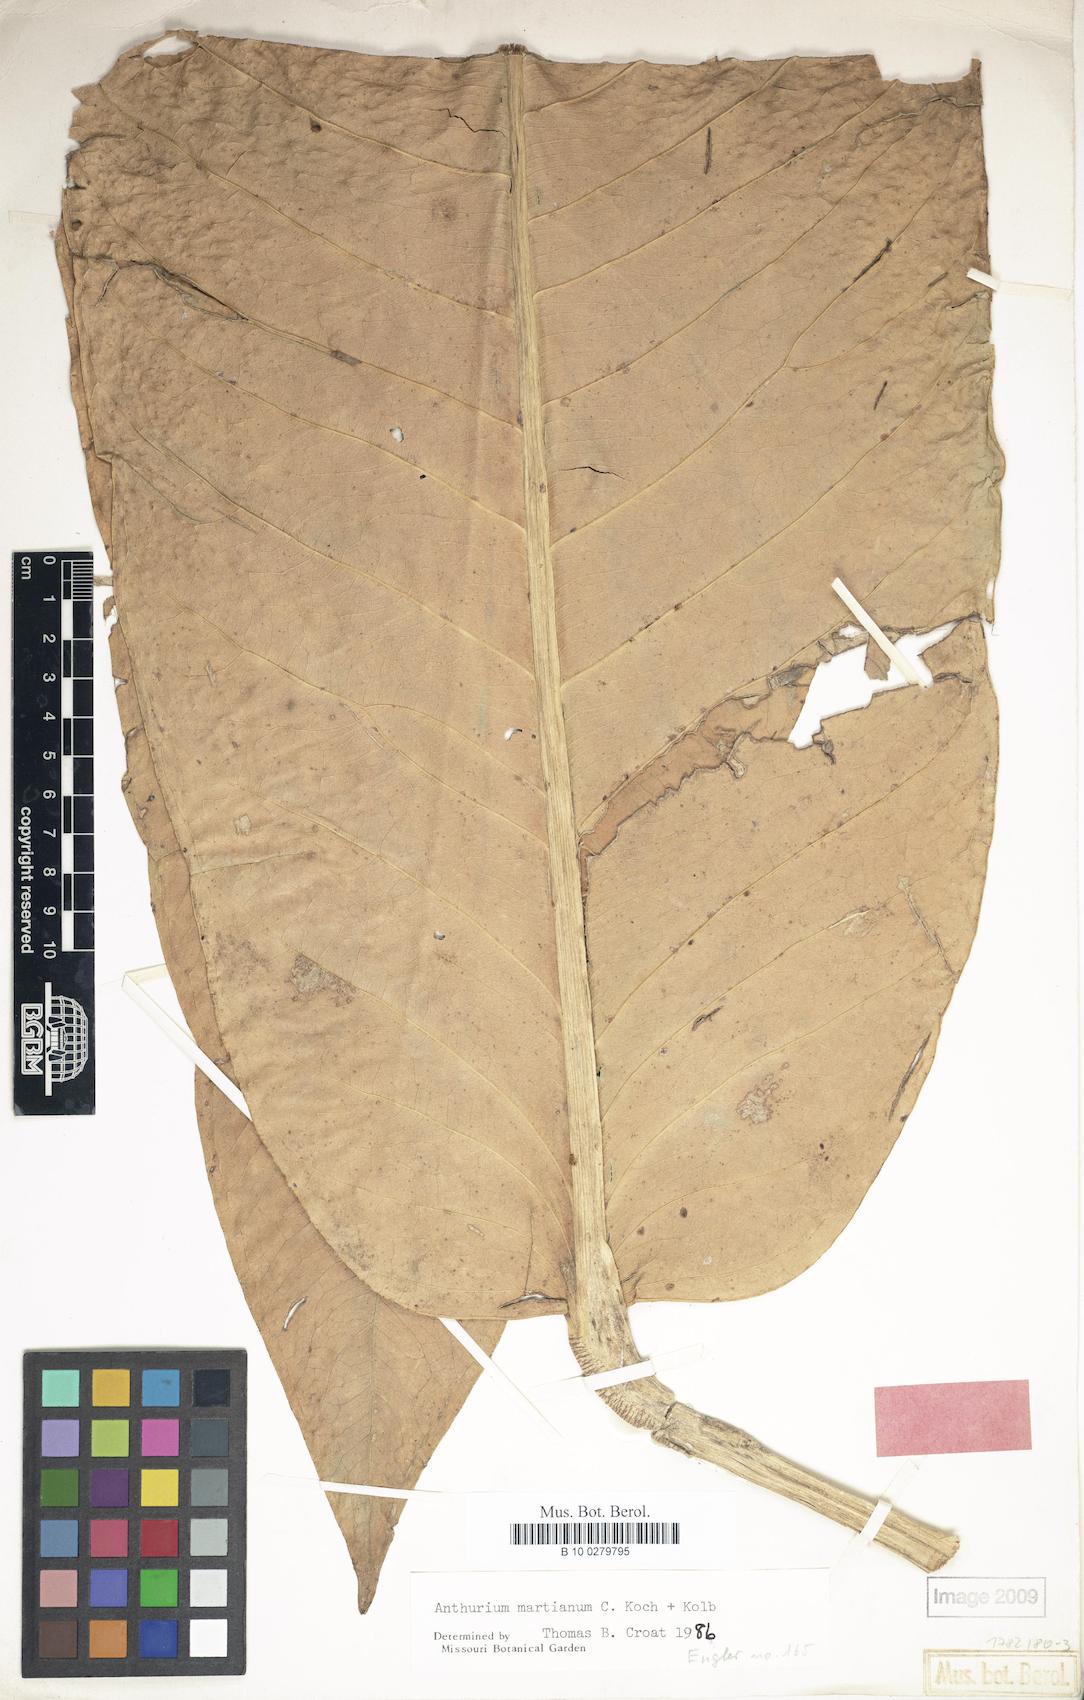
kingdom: Plantae
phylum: Tracheophyta
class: Liliopsida
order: Alismatales
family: Araceae
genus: Anthurium
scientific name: Anthurium martianum
